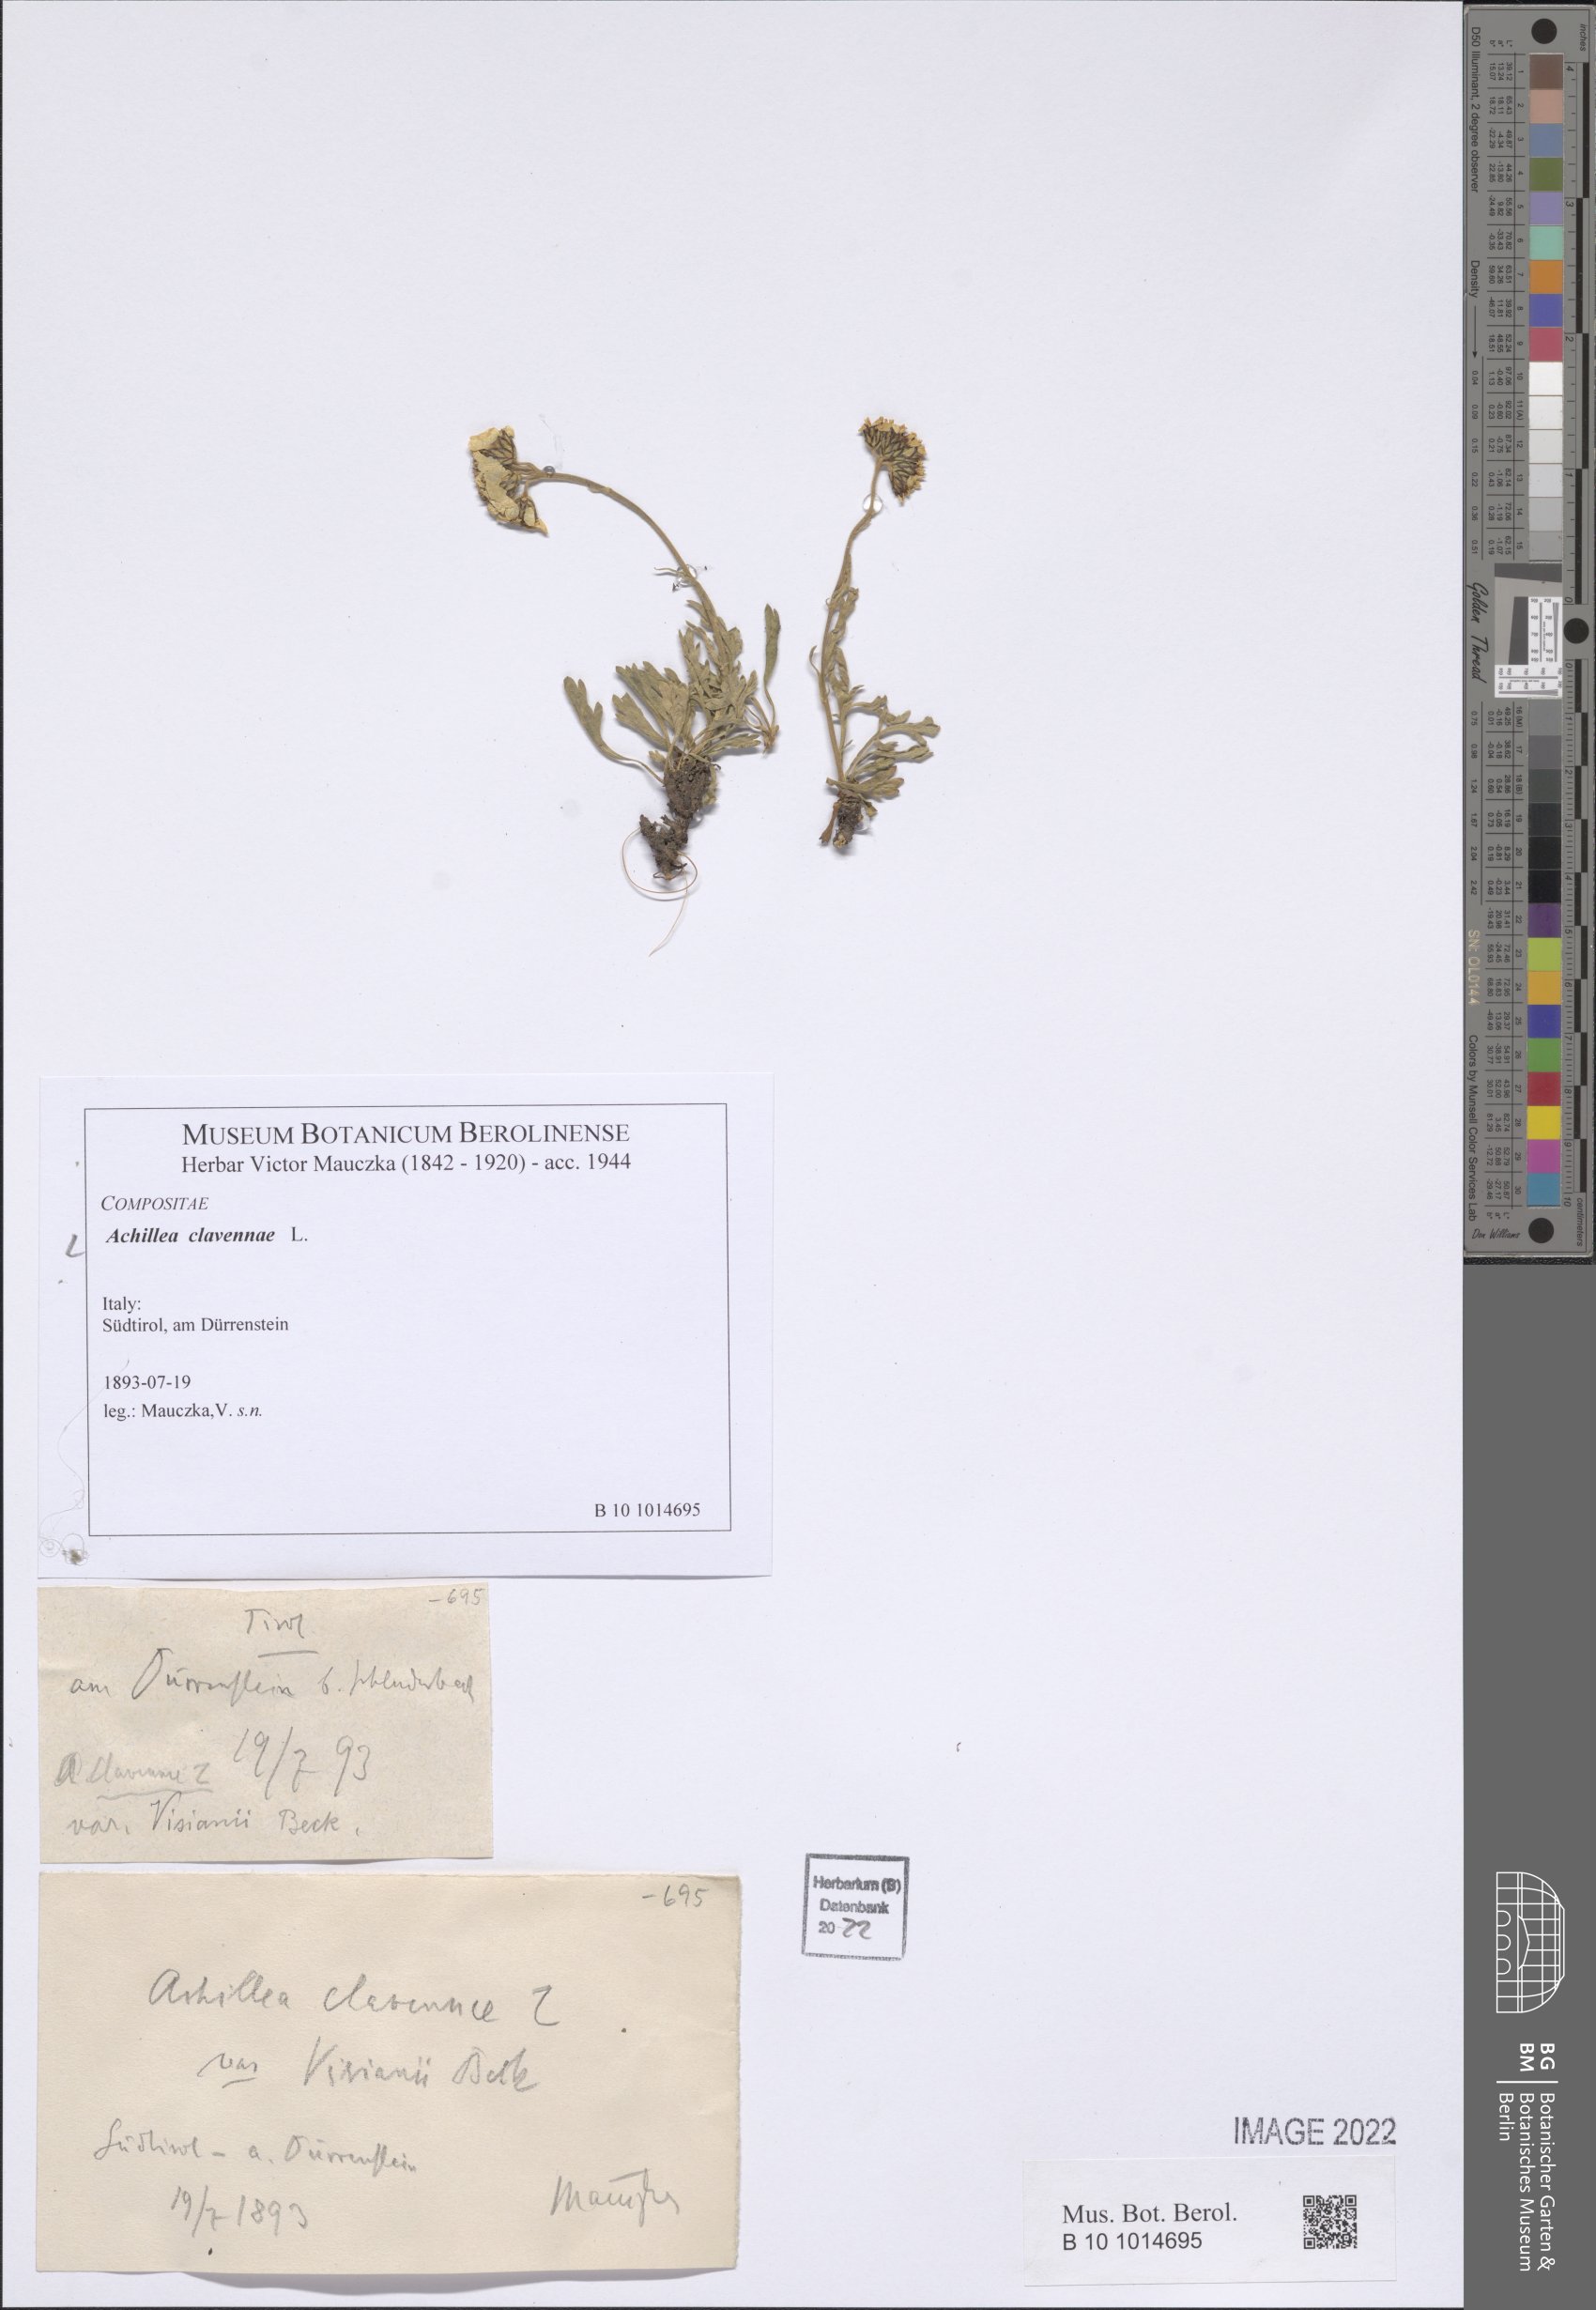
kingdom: Plantae
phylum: Tracheophyta
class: Magnoliopsida
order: Asterales
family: Asteraceae
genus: Achillea
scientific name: Achillea clavennae
